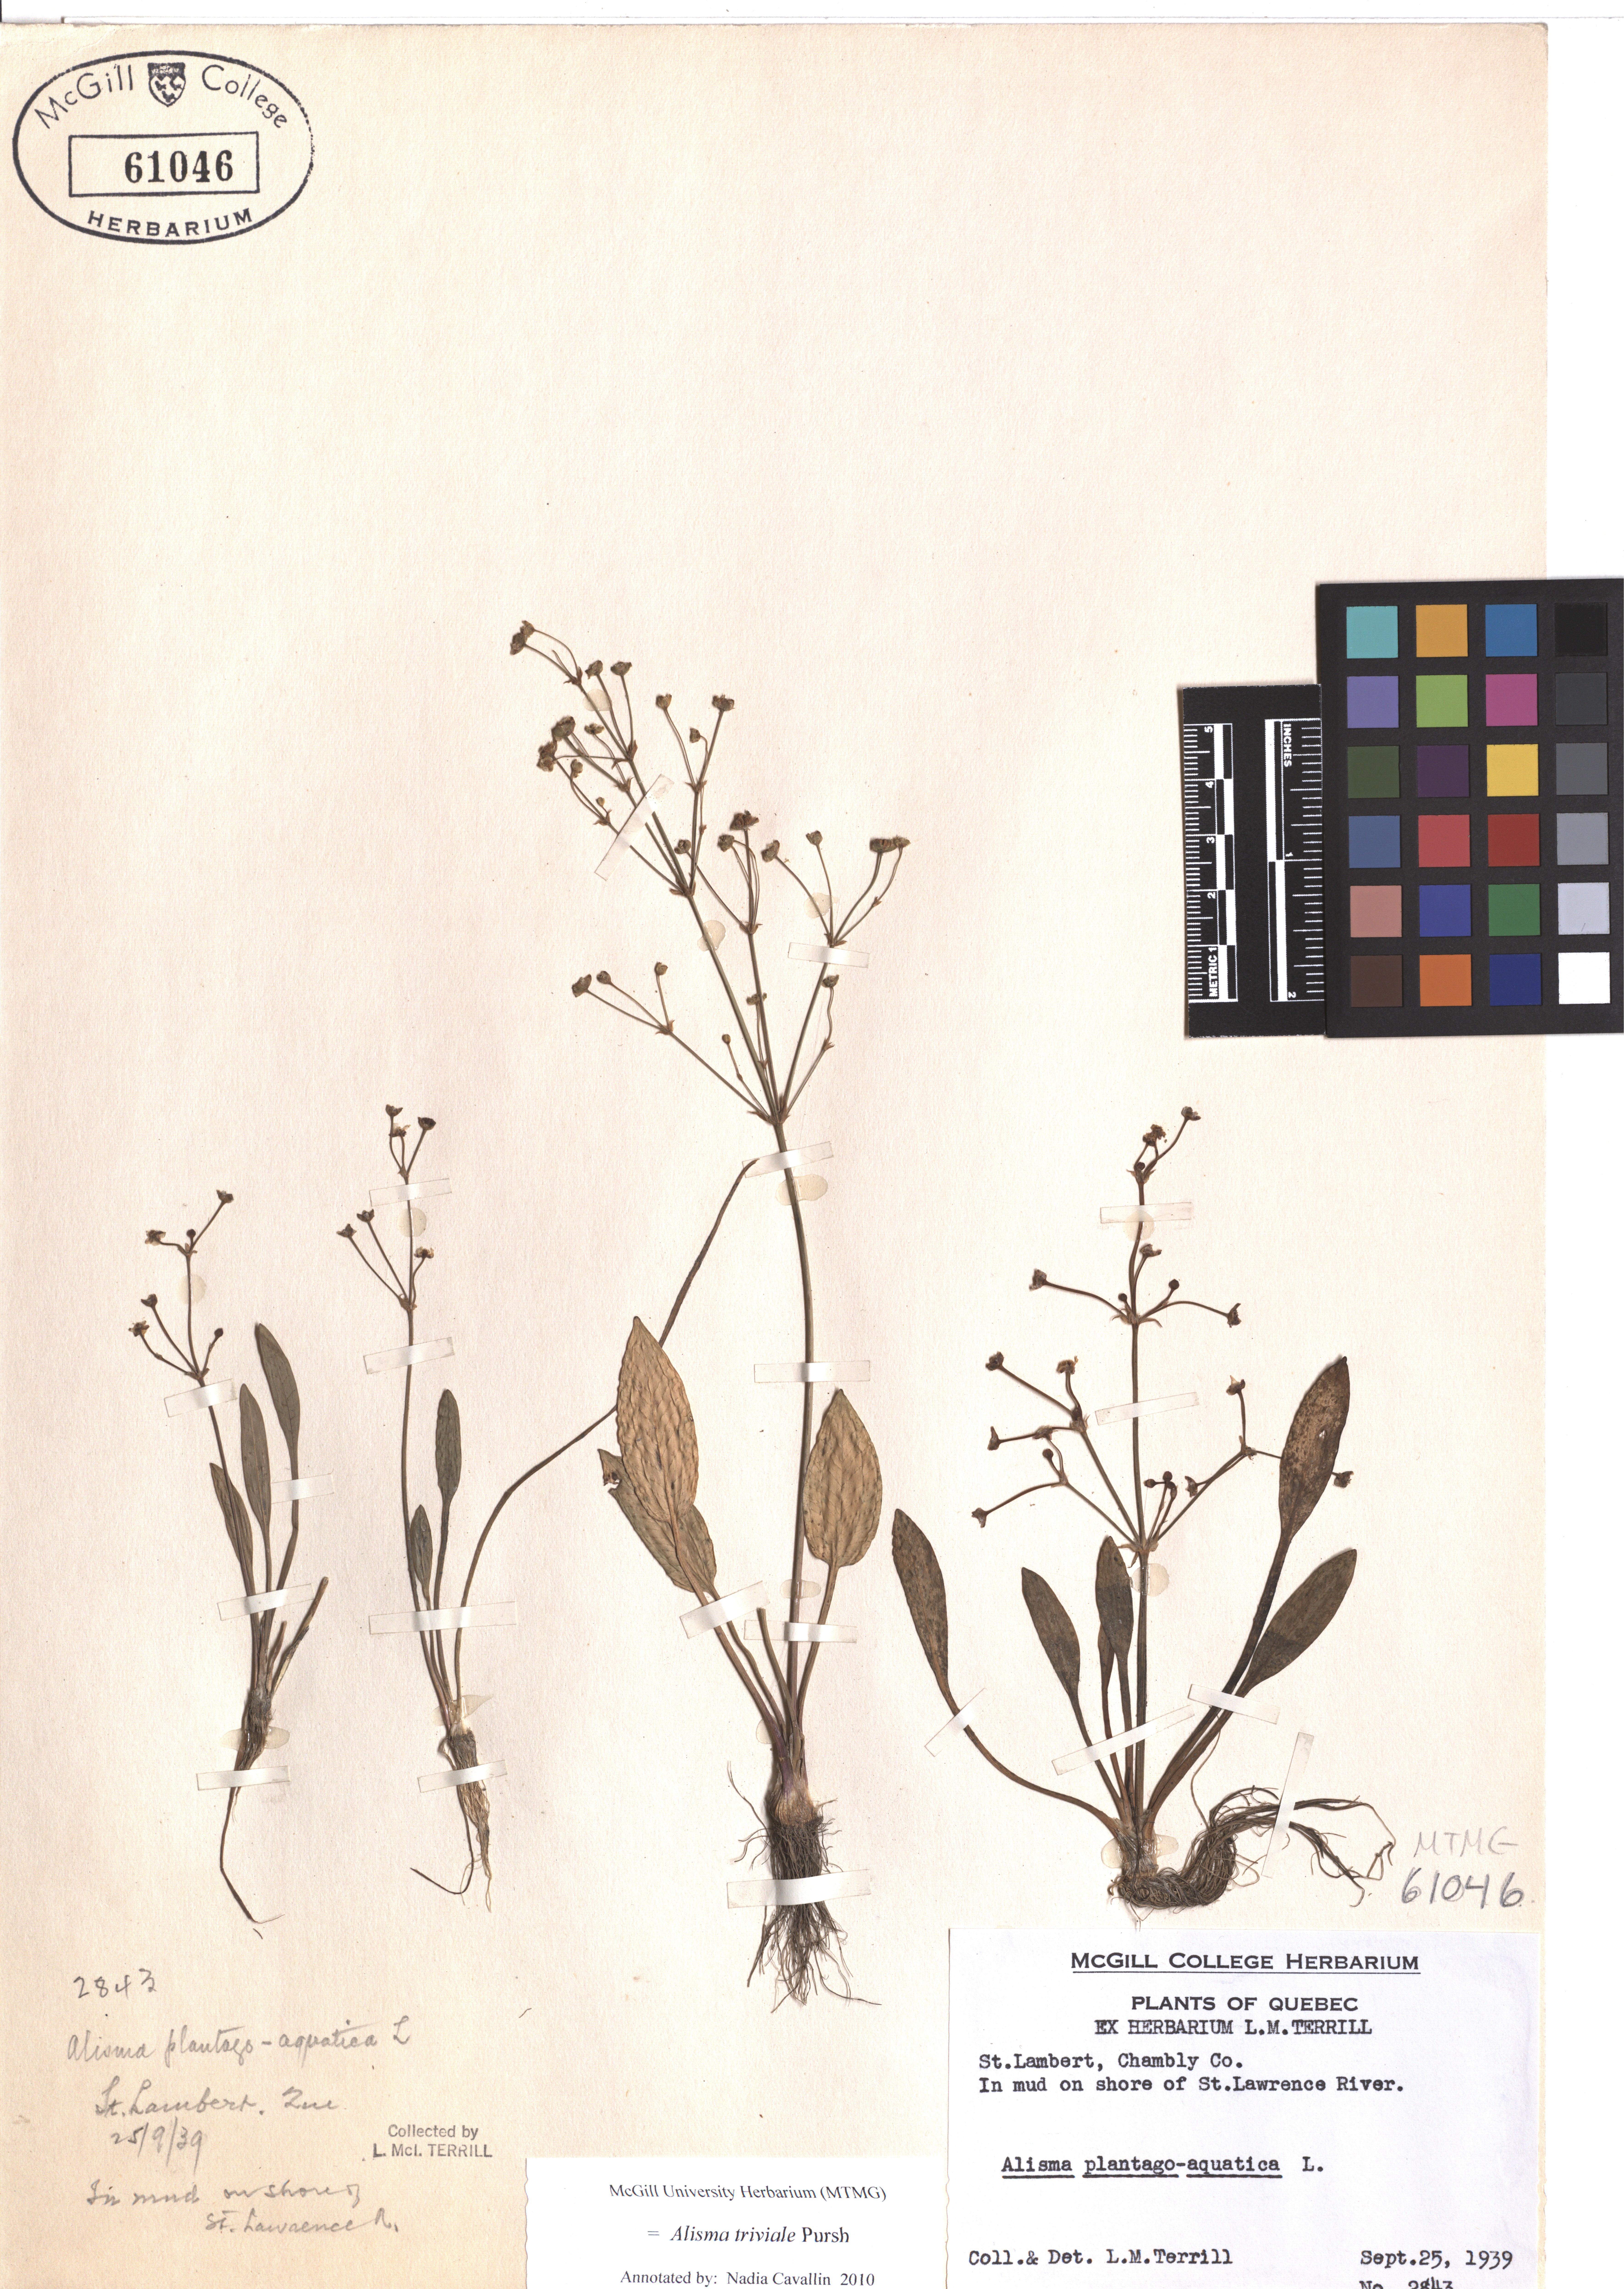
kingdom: Plantae
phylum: Tracheophyta
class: Liliopsida
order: Alismatales
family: Alismataceae
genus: Alisma
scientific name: Alisma triviale
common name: Northern water-plantain
